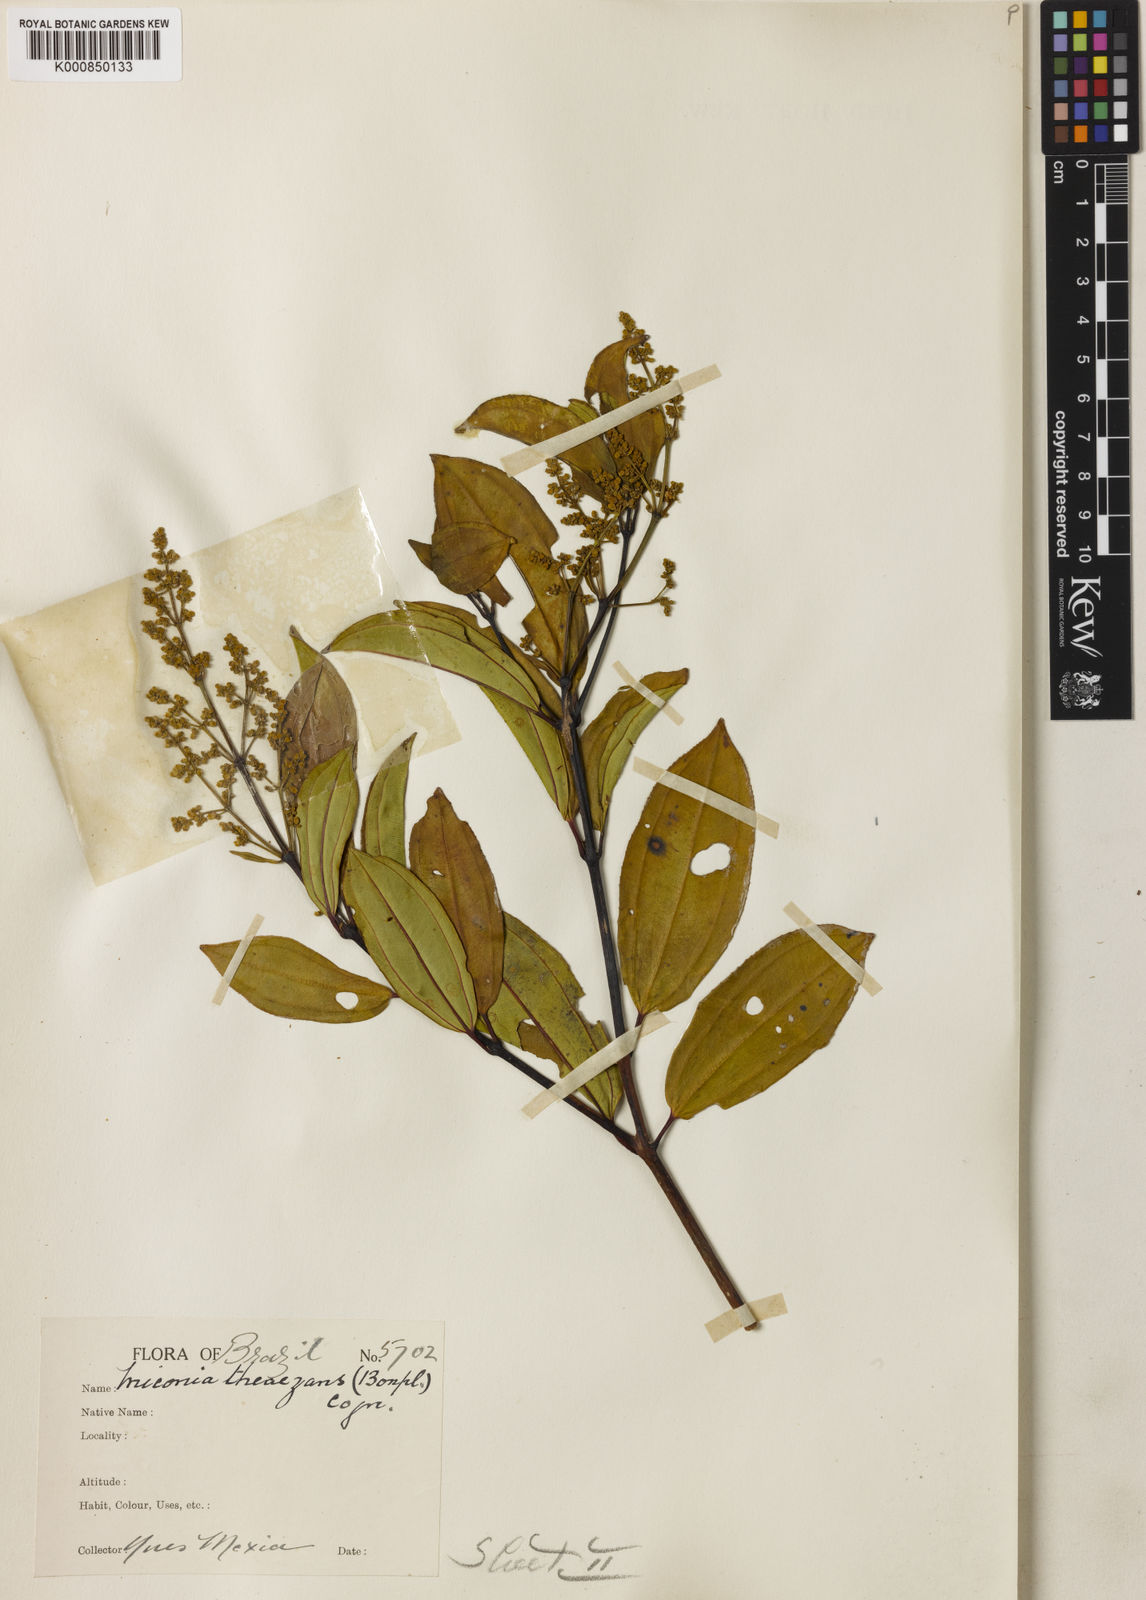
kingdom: Plantae
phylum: Tracheophyta
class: Magnoliopsida
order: Myrtales
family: Melastomataceae
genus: Miconia
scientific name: Miconia
